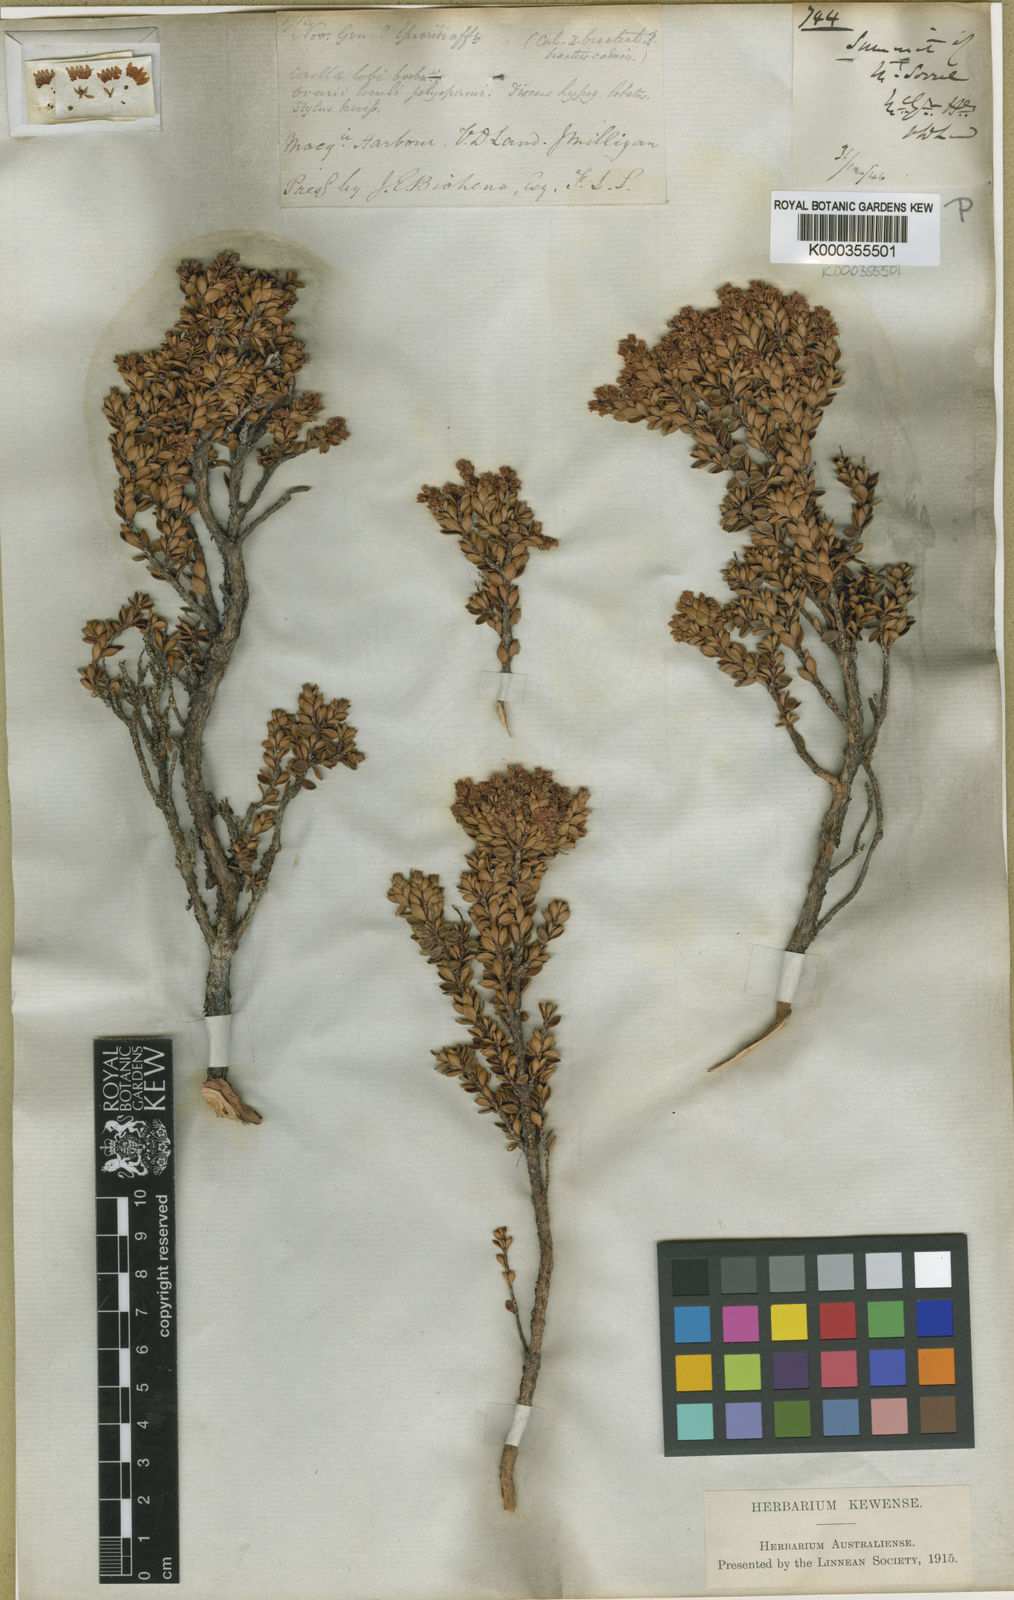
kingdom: Plantae
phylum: Tracheophyta
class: Magnoliopsida
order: Ericales
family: Ericaceae
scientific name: Ericaceae
